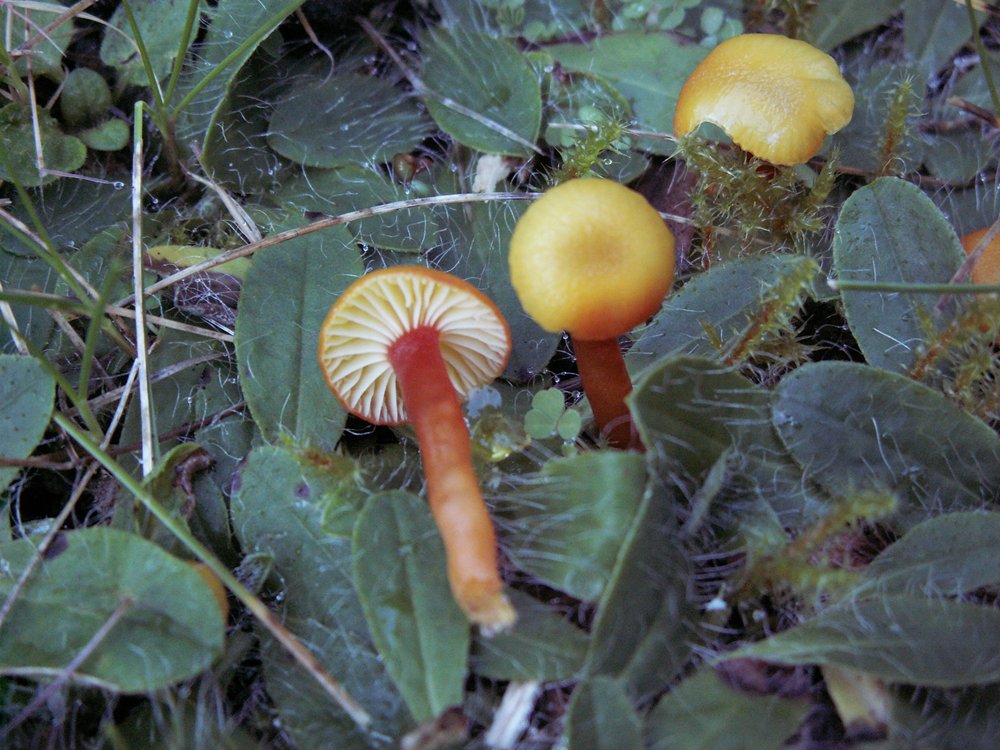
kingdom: Fungi
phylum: Basidiomycota
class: Agaricomycetes
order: Agaricales
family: Hygrophoraceae
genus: Hygrocybe
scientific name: Hygrocybe insipida
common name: liden vokshat
